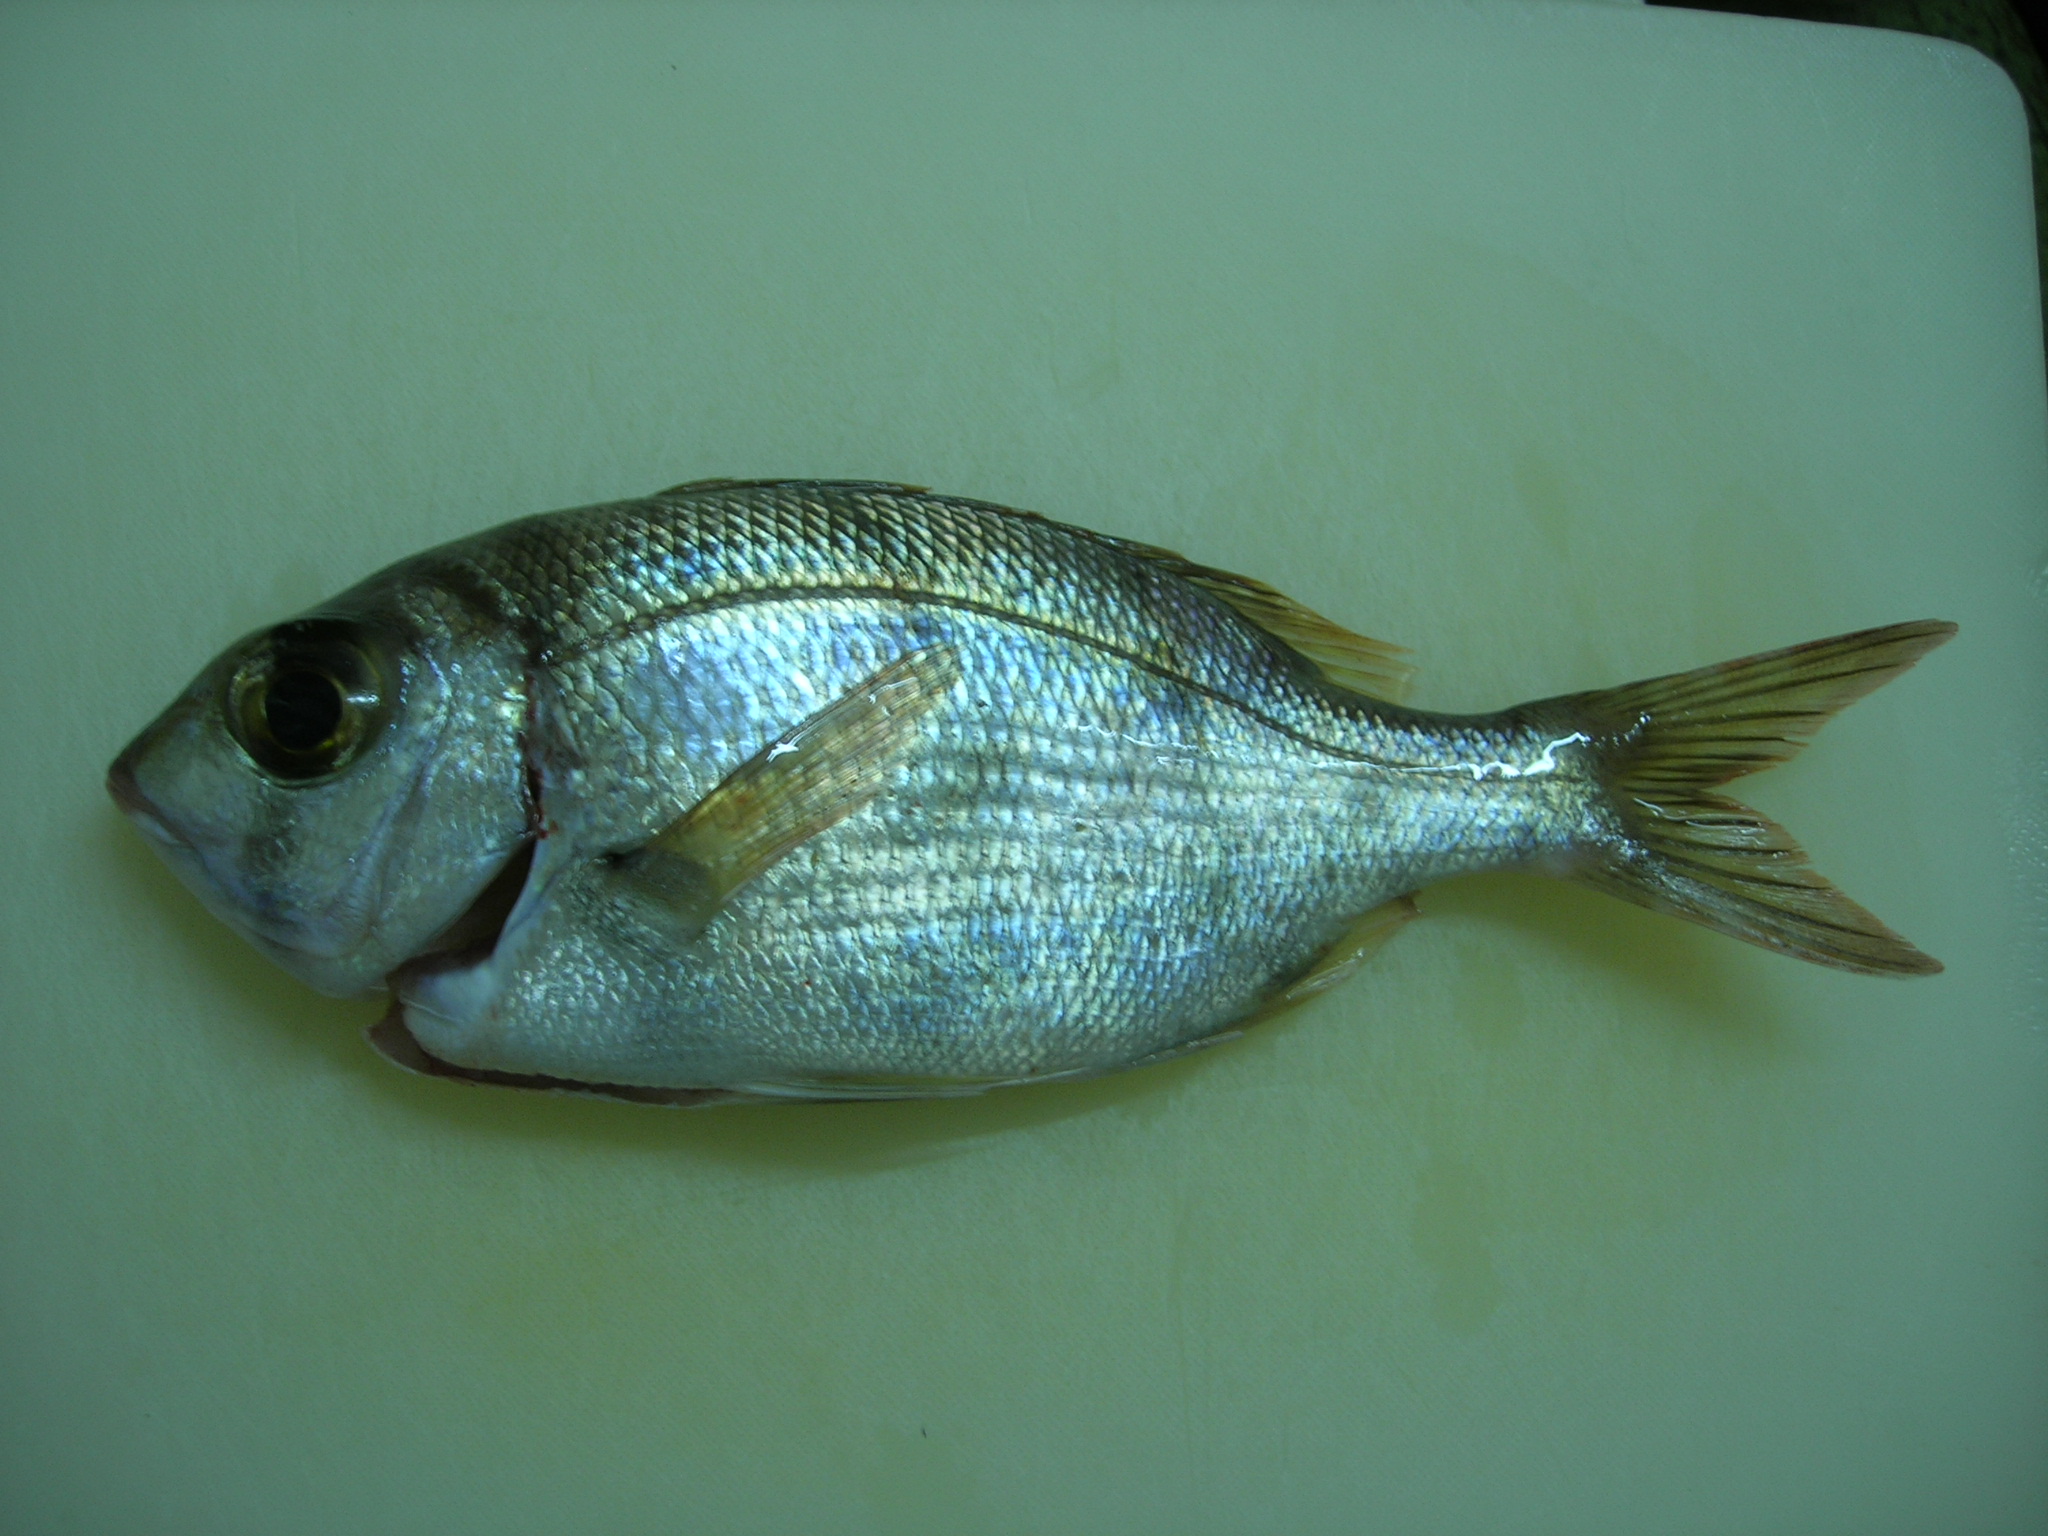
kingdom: Animalia
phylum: Chordata
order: Perciformes
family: Lethrinidae
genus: Gymnocranius
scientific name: Gymnocranius griseus
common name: Grey emperor
